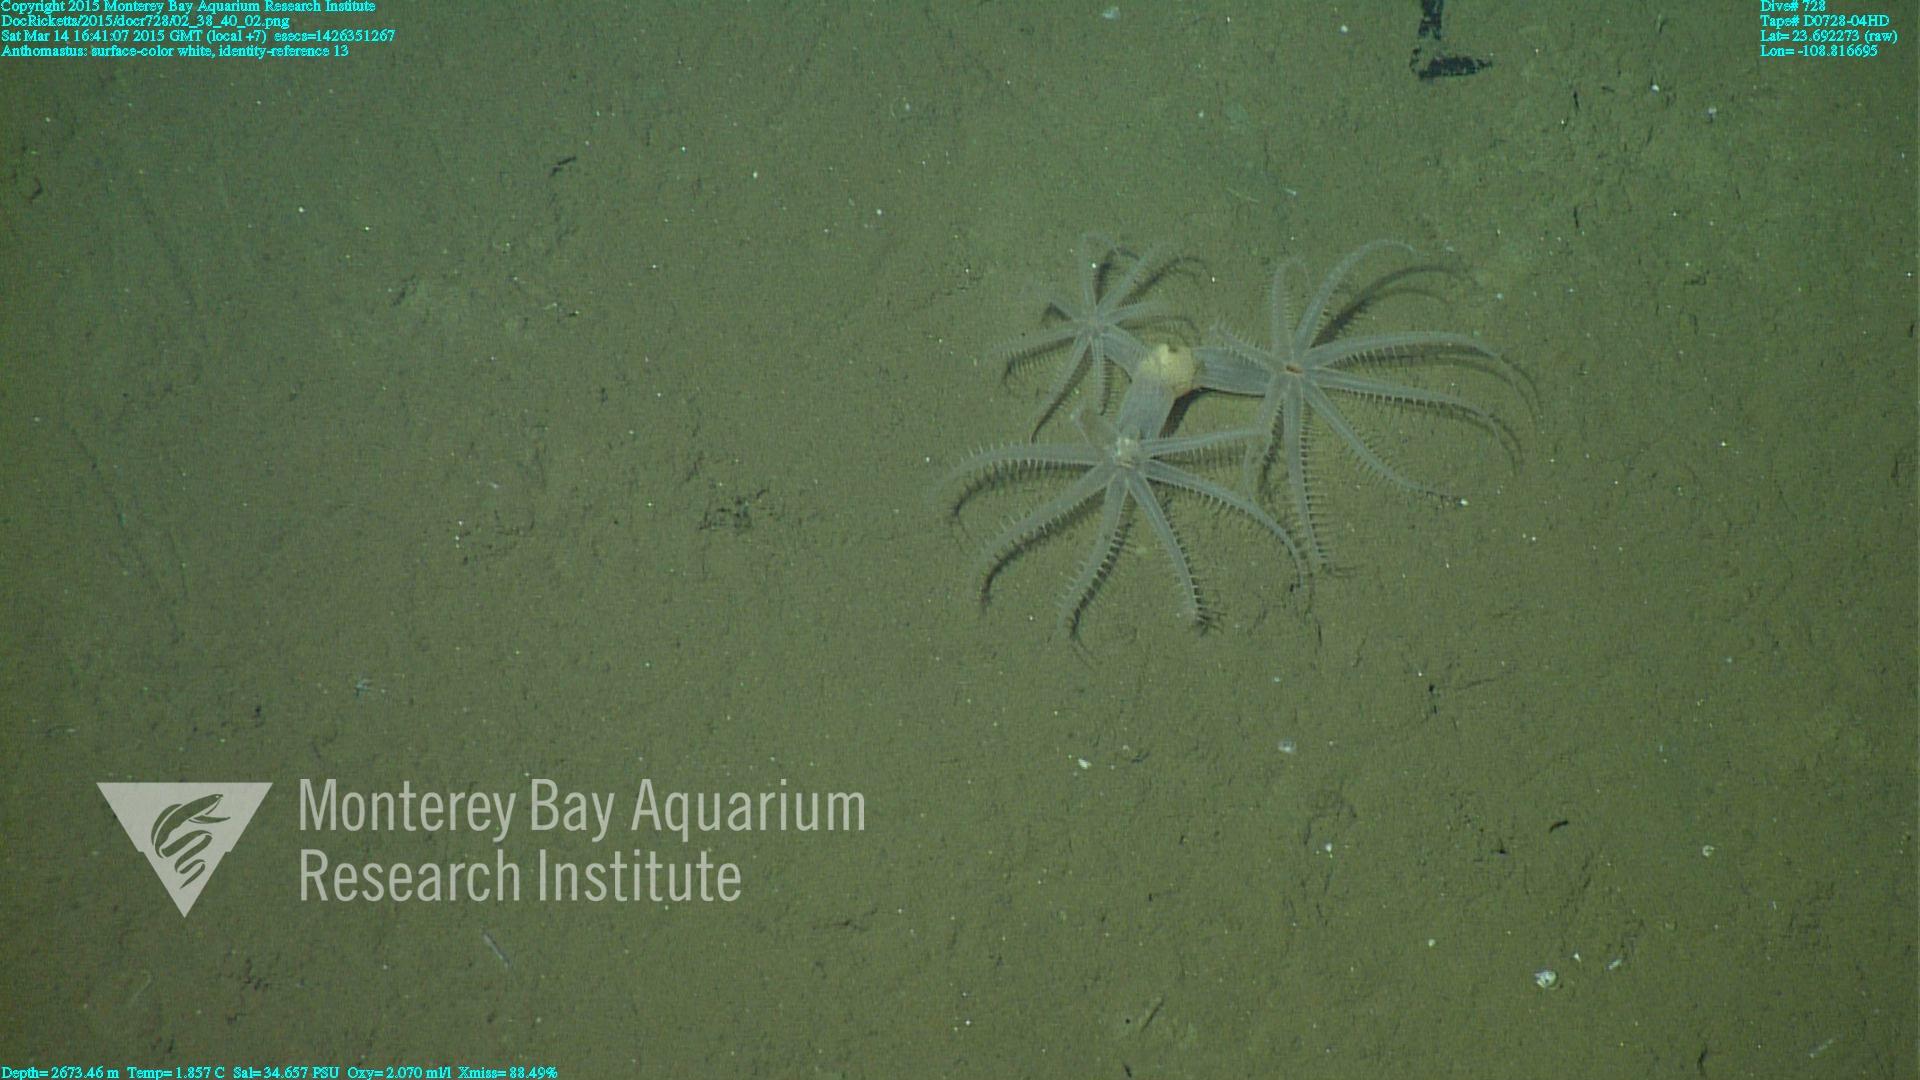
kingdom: Animalia
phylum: Cnidaria
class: Anthozoa
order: Scleralcyonacea
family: Coralliidae
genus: Bathyalcyon
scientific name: Bathyalcyon robustum
